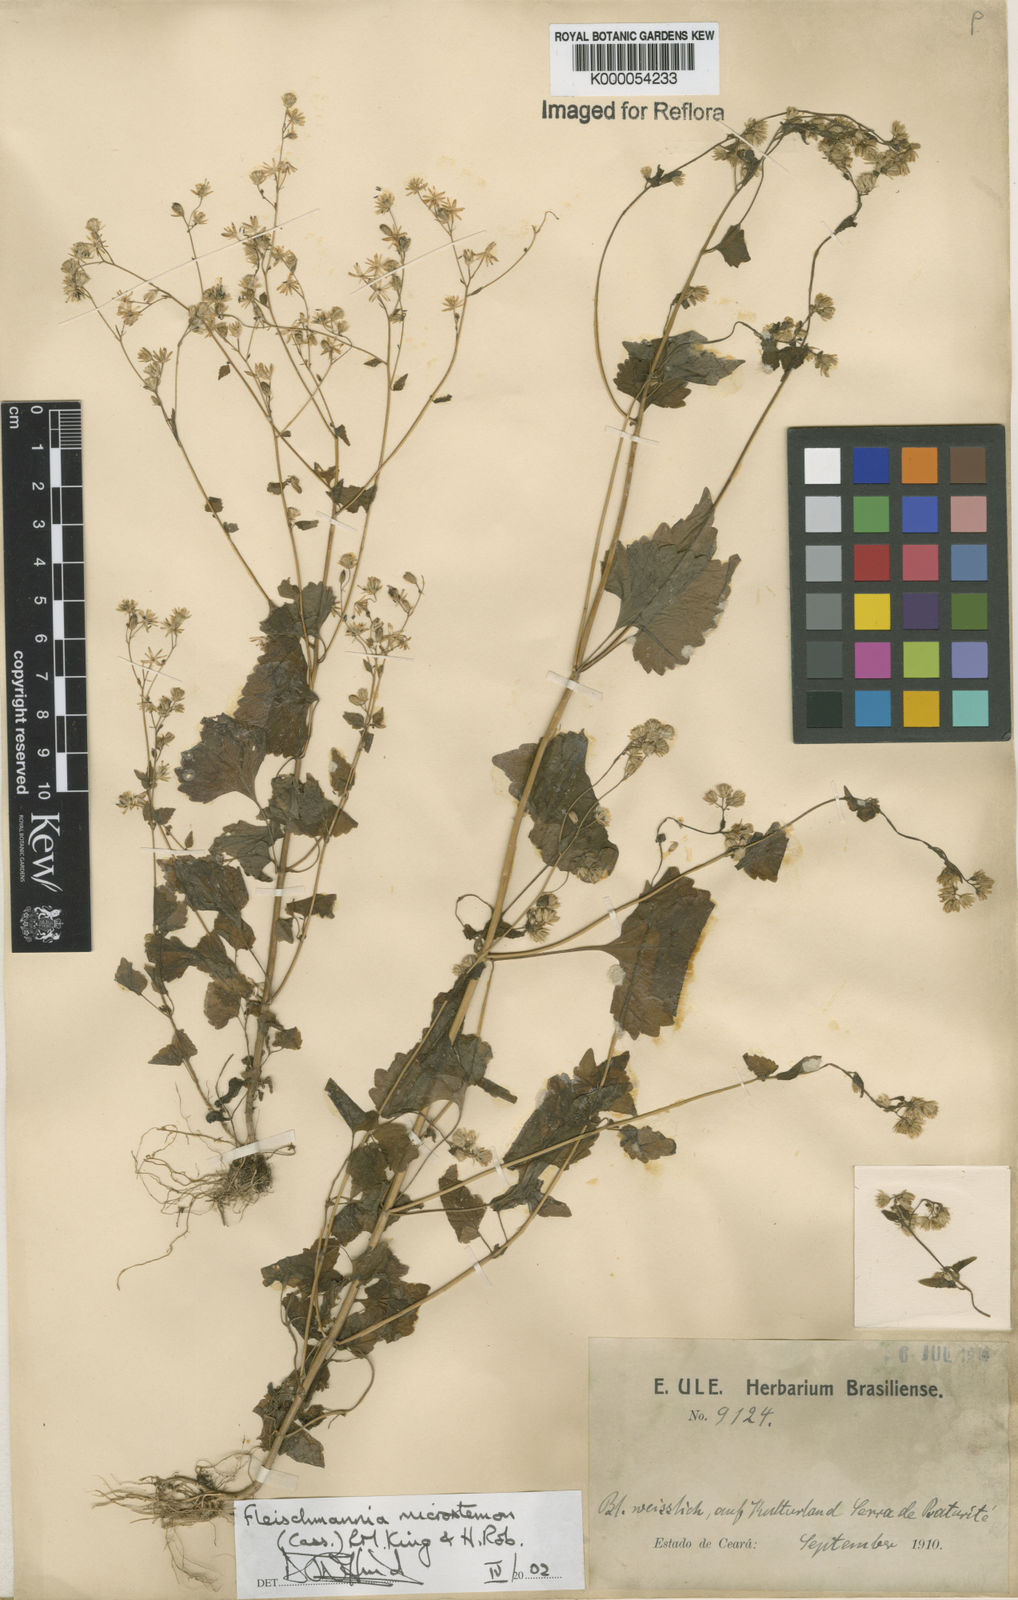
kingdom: Plantae
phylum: Tracheophyta
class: Magnoliopsida
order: Asterales
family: Asteraceae
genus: Fleischmannia
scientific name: Fleischmannia microstemon
